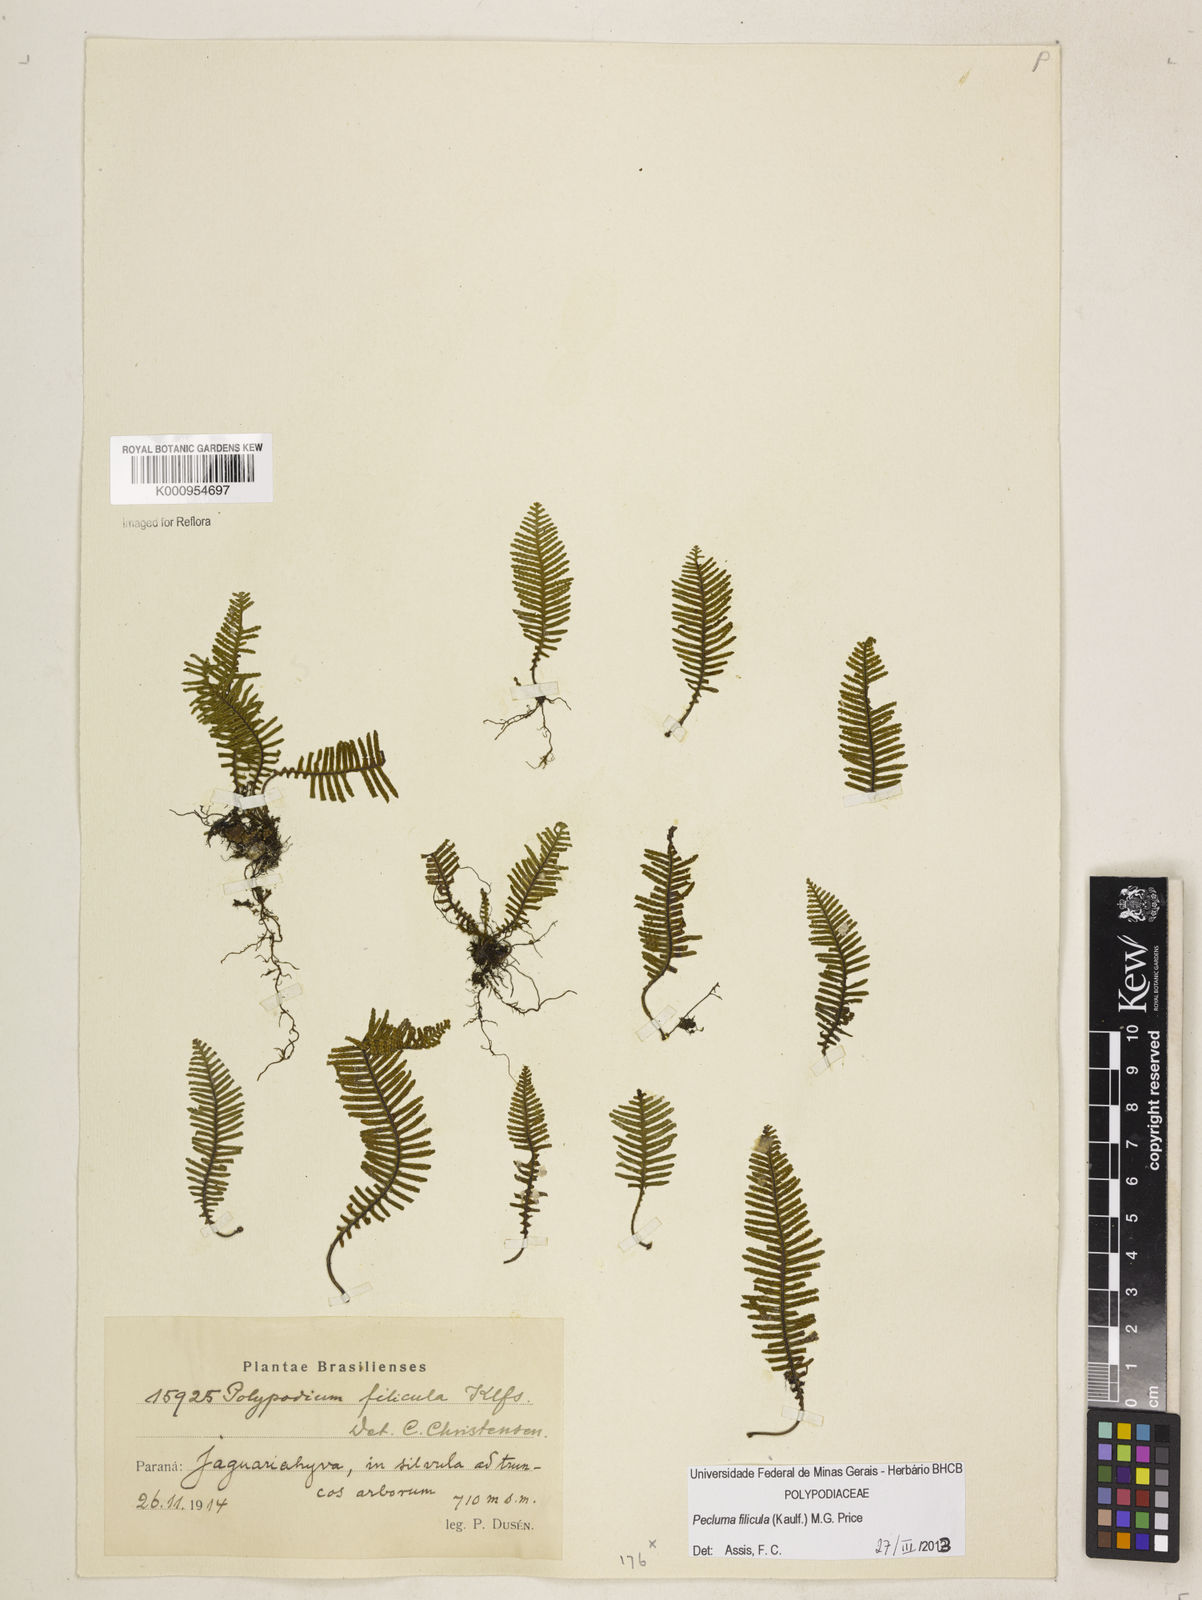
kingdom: Plantae
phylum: Tracheophyta
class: Polypodiopsida
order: Polypodiales
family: Polypodiaceae
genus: Pecluma
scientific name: Pecluma filicula
